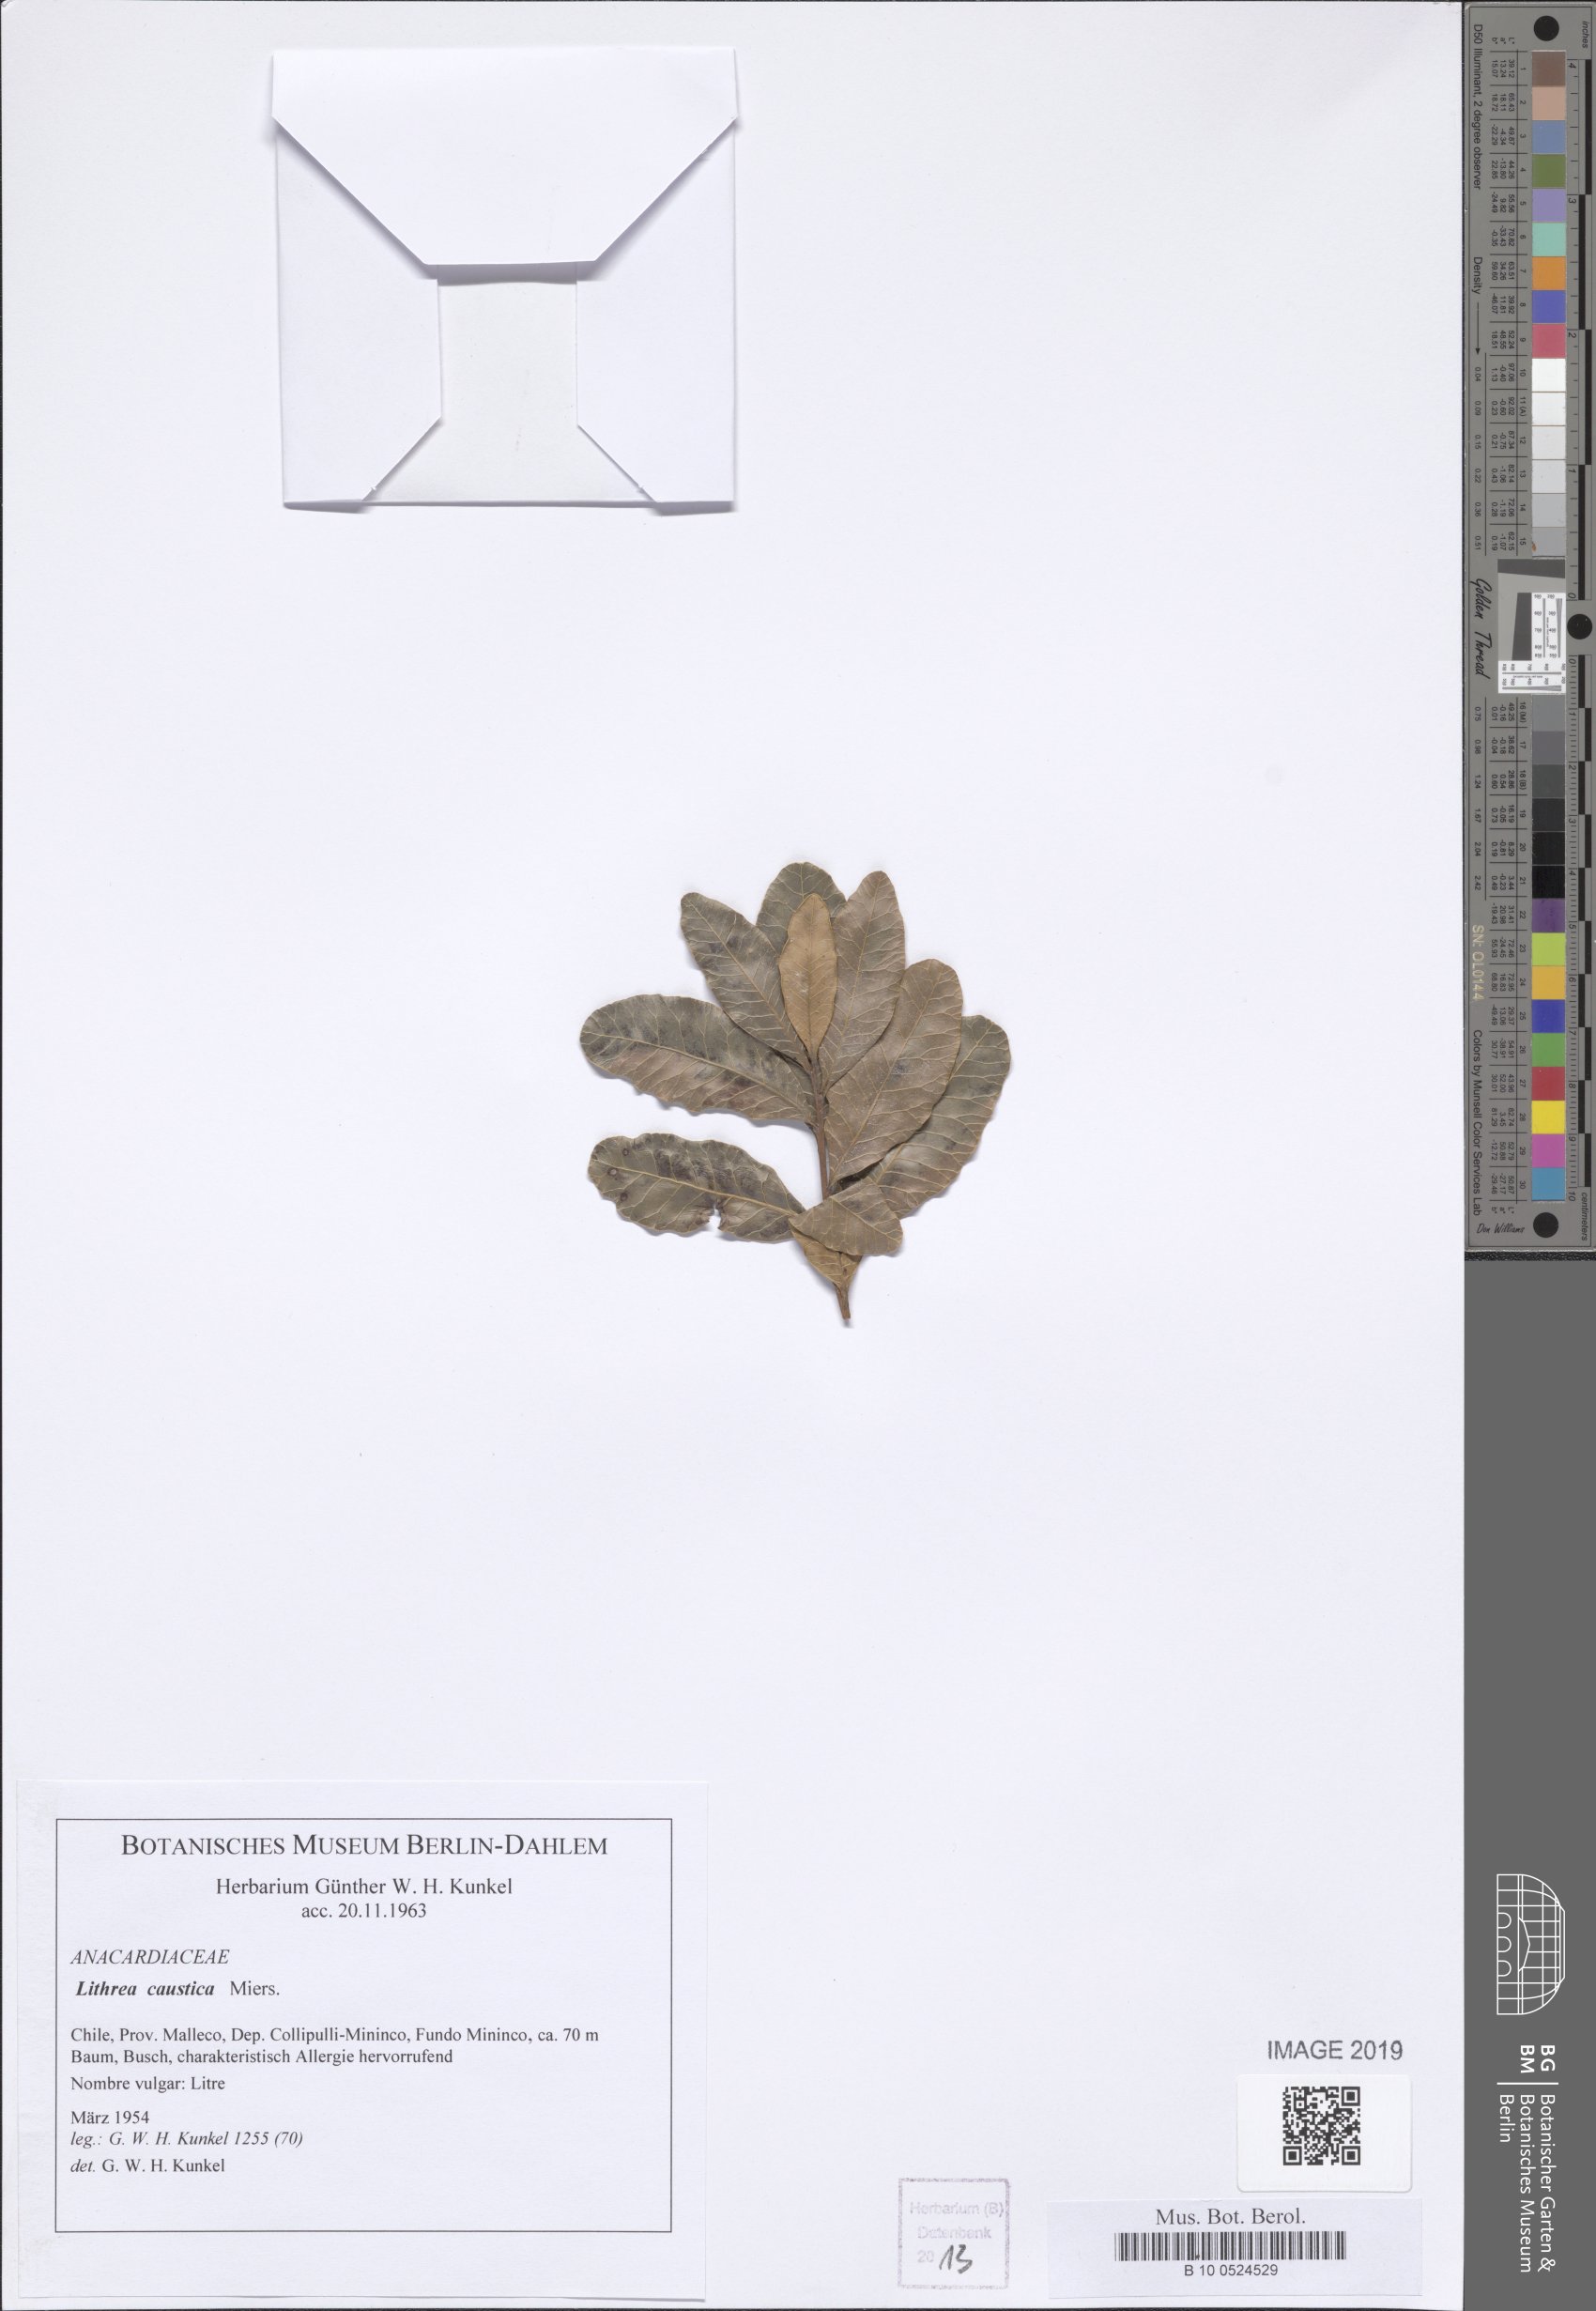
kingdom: Plantae
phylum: Tracheophyta
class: Magnoliopsida
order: Sapindales
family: Anacardiaceae
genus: Lithraea
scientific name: Lithraea Lithrea caustica
